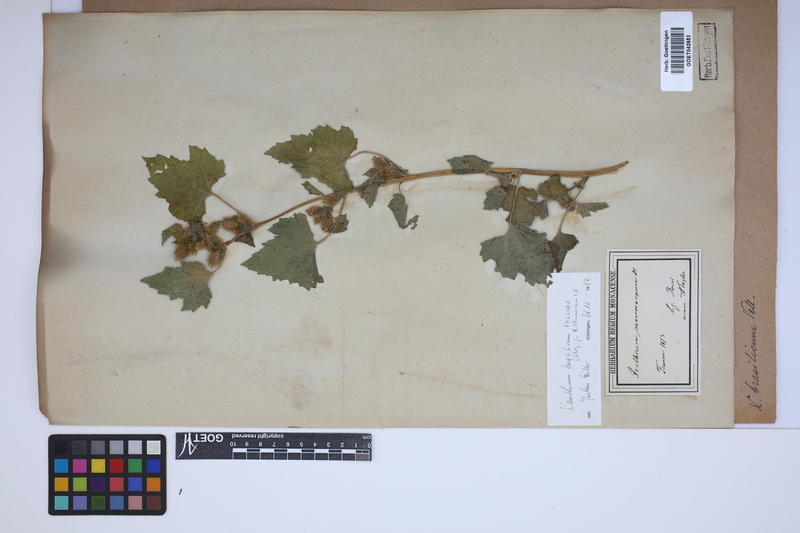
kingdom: Plantae
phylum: Tracheophyta
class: Magnoliopsida
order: Asterales
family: Asteraceae
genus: Xanthium
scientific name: Xanthium strumarium
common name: Rough cocklebur
